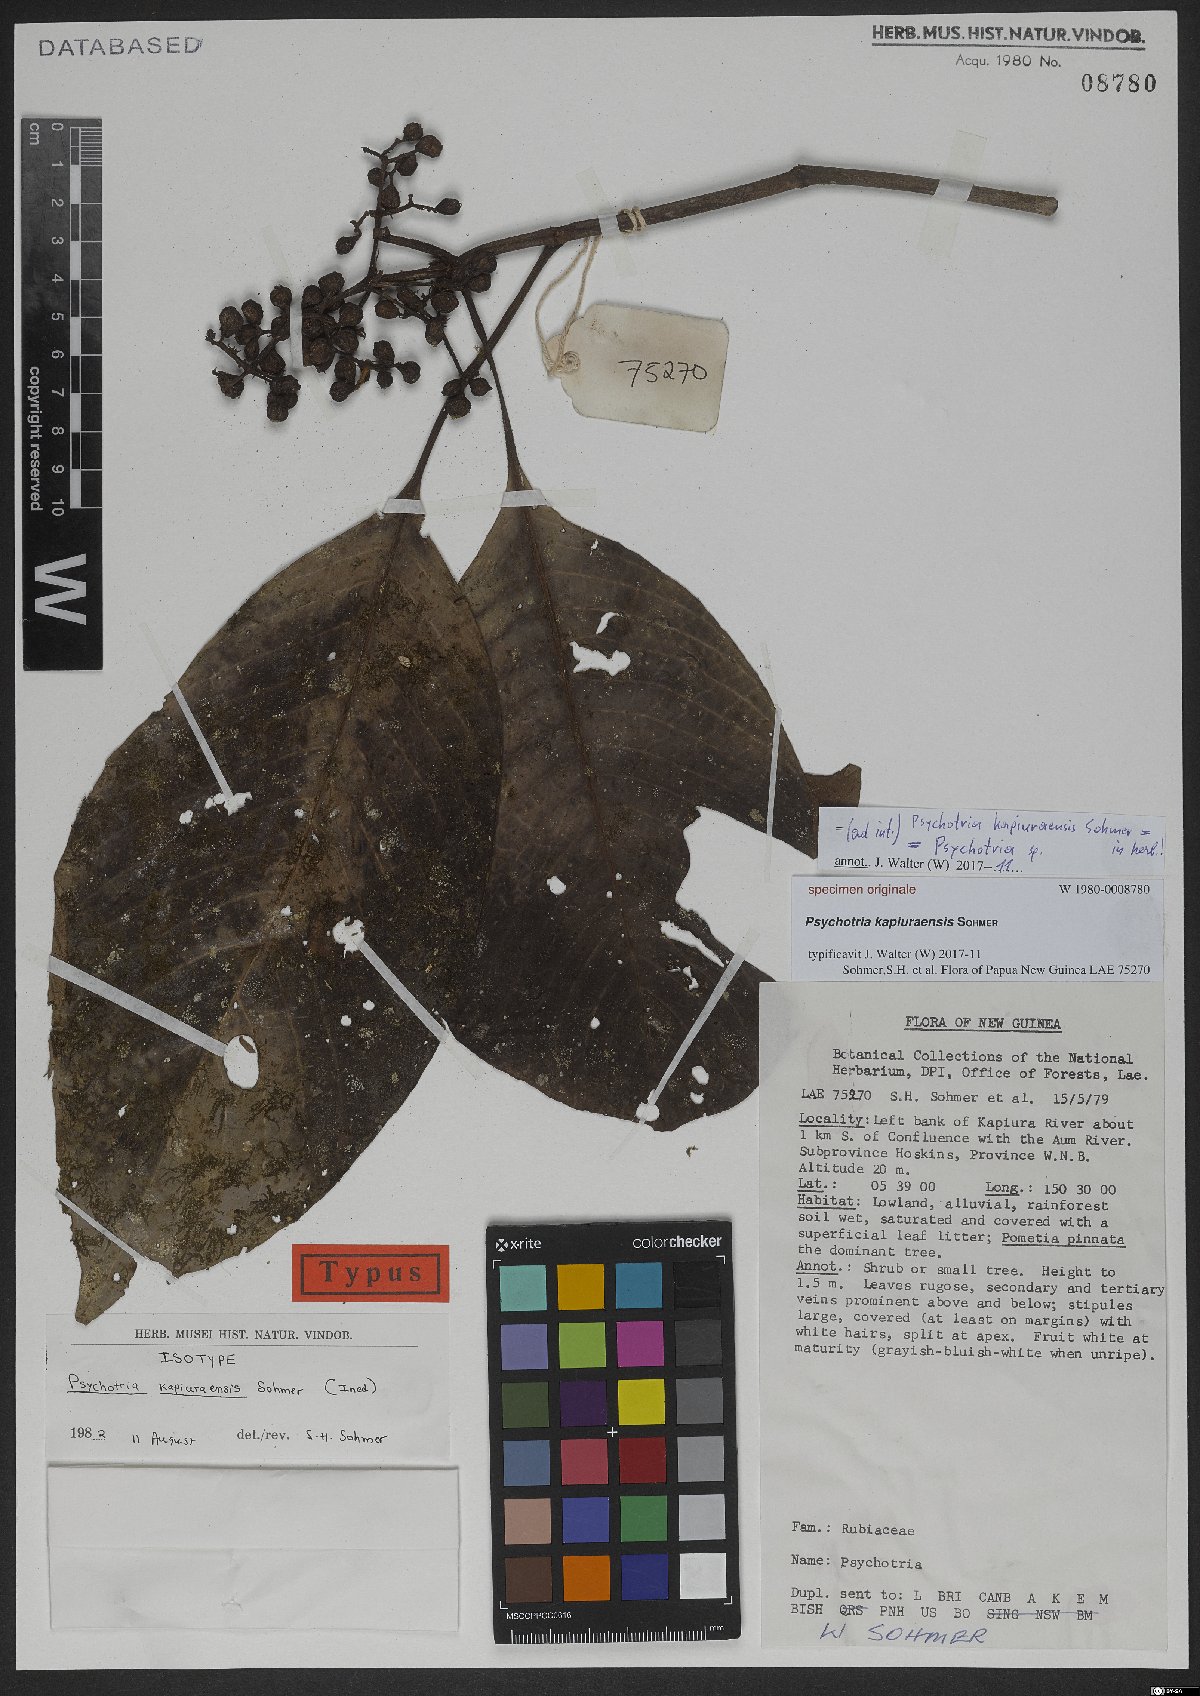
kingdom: Plantae
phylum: Tracheophyta
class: Magnoliopsida
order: Gentianales
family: Rubiaceae
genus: Psychotria
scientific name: Psychotria
